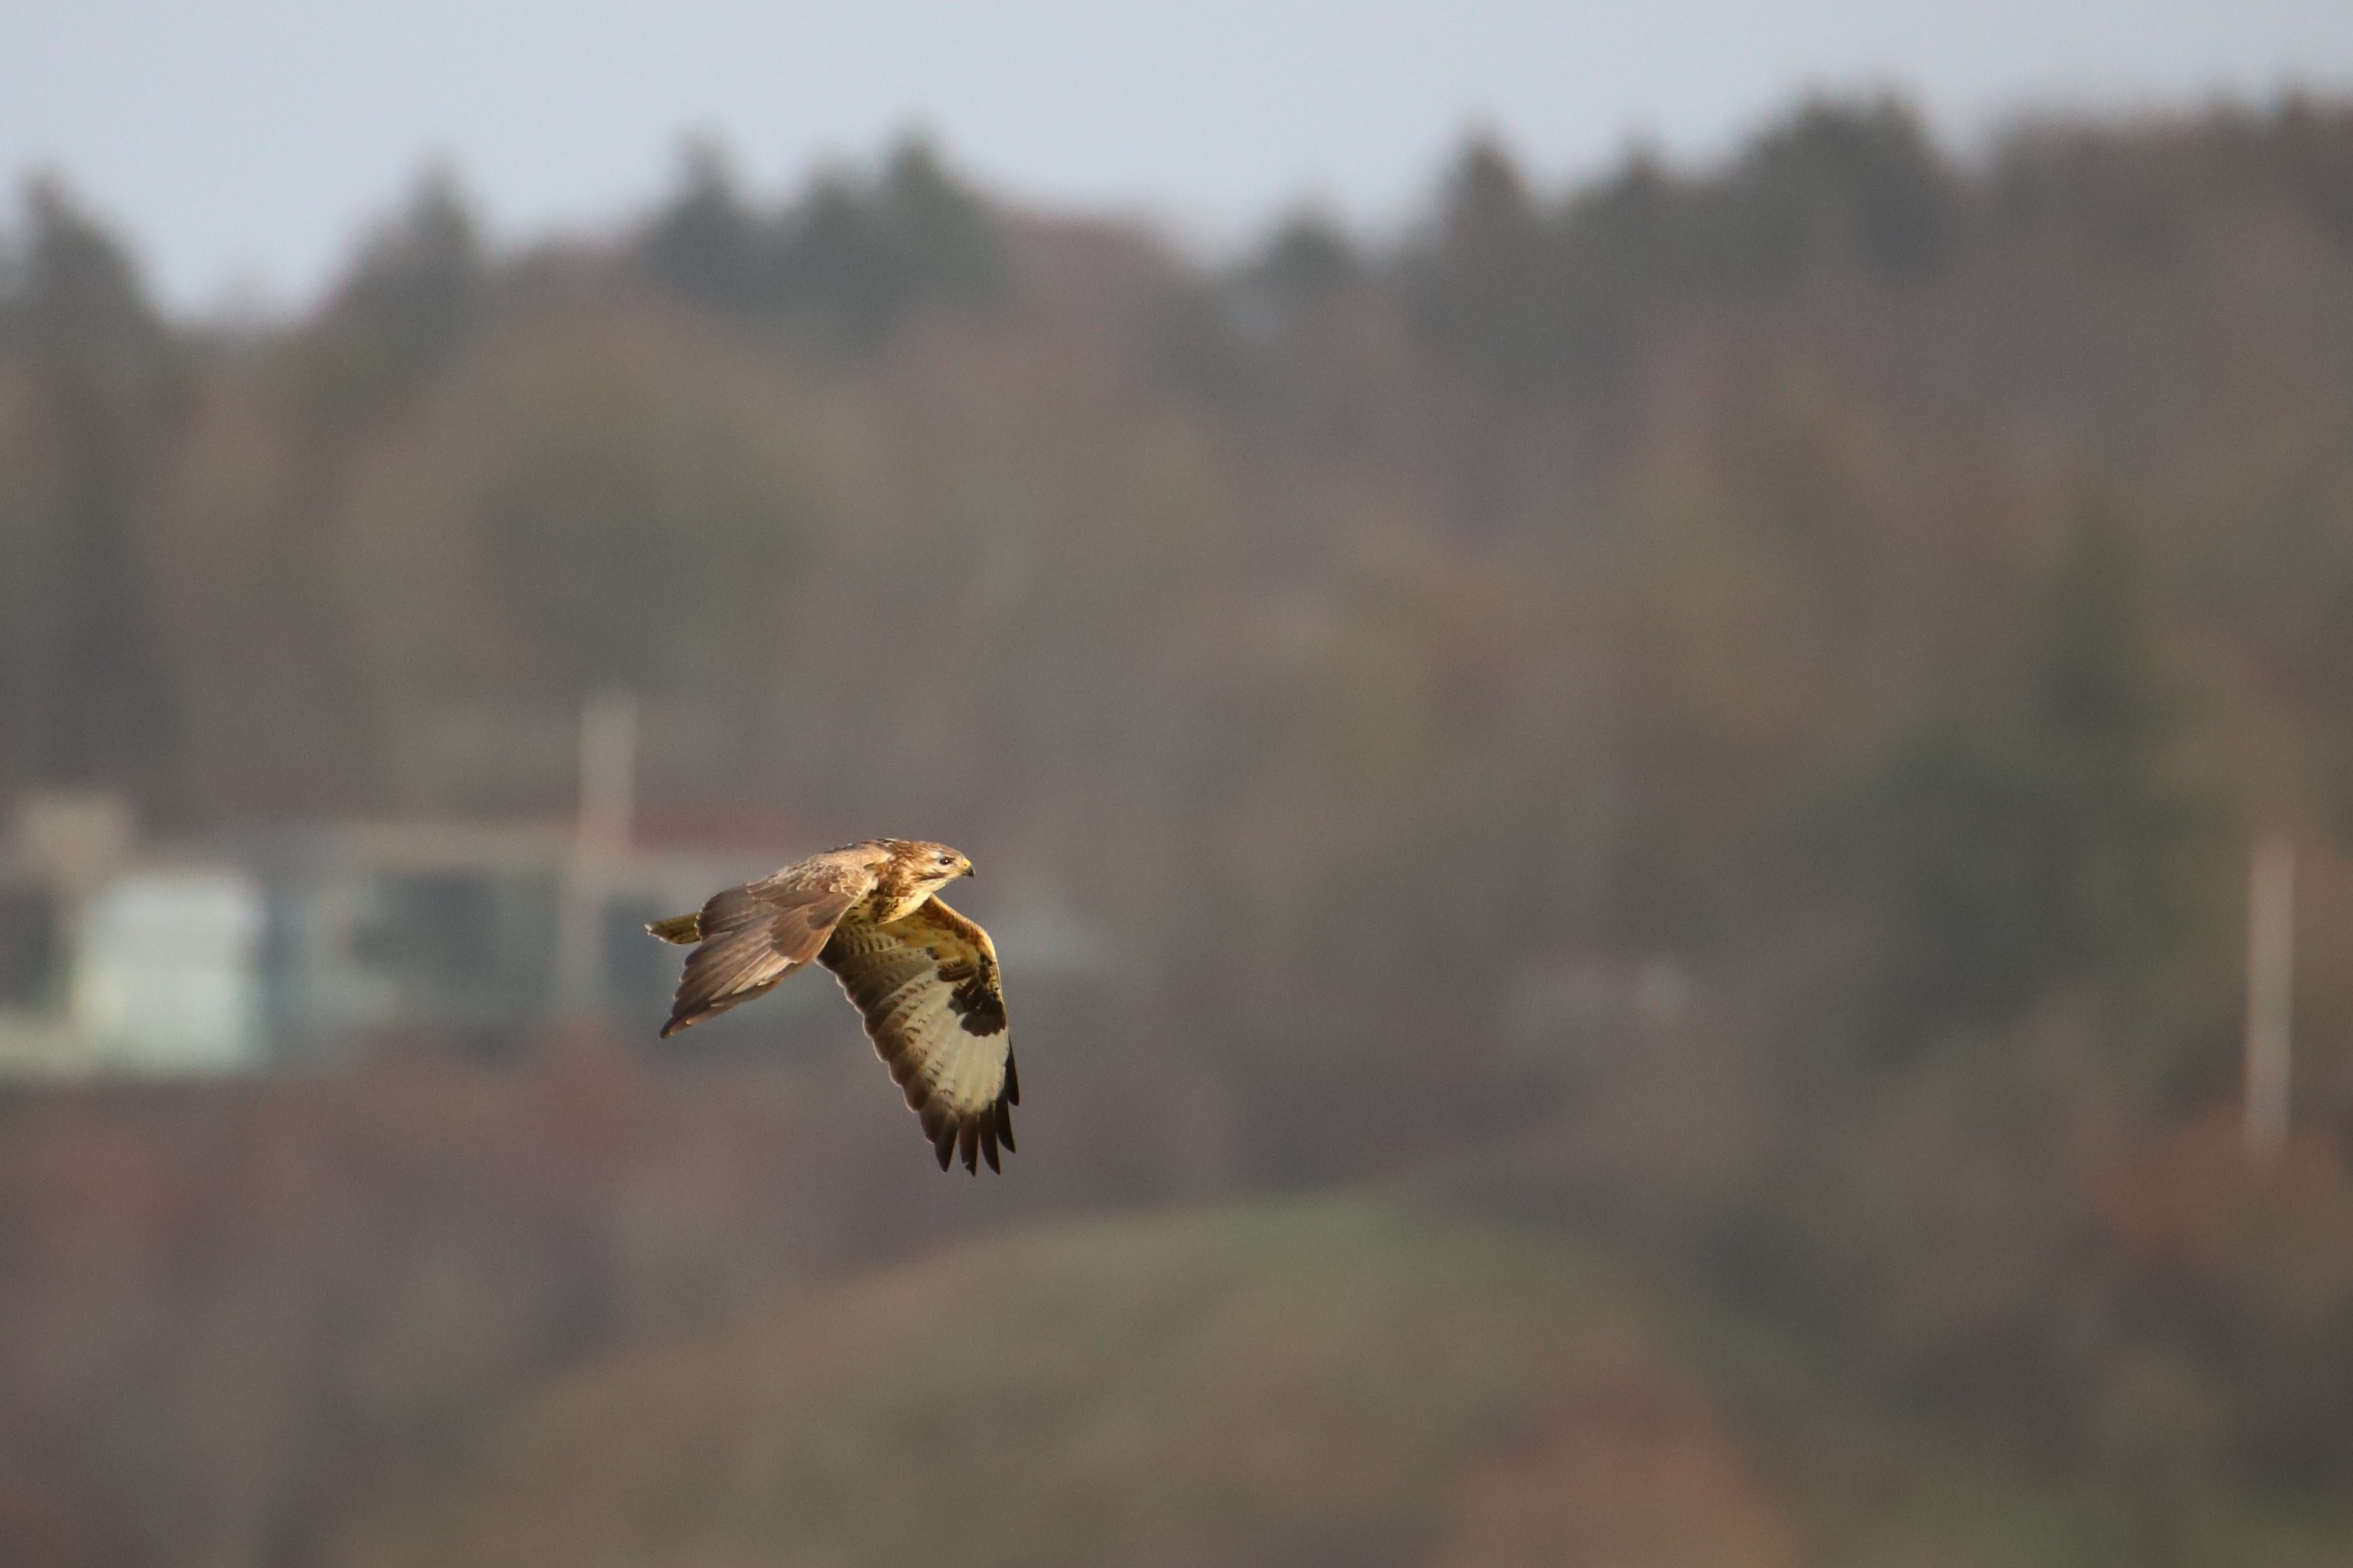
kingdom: Animalia
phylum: Chordata
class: Aves
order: Accipitriformes
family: Accipitridae
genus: Buteo
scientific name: Buteo buteo
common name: Musvåge
